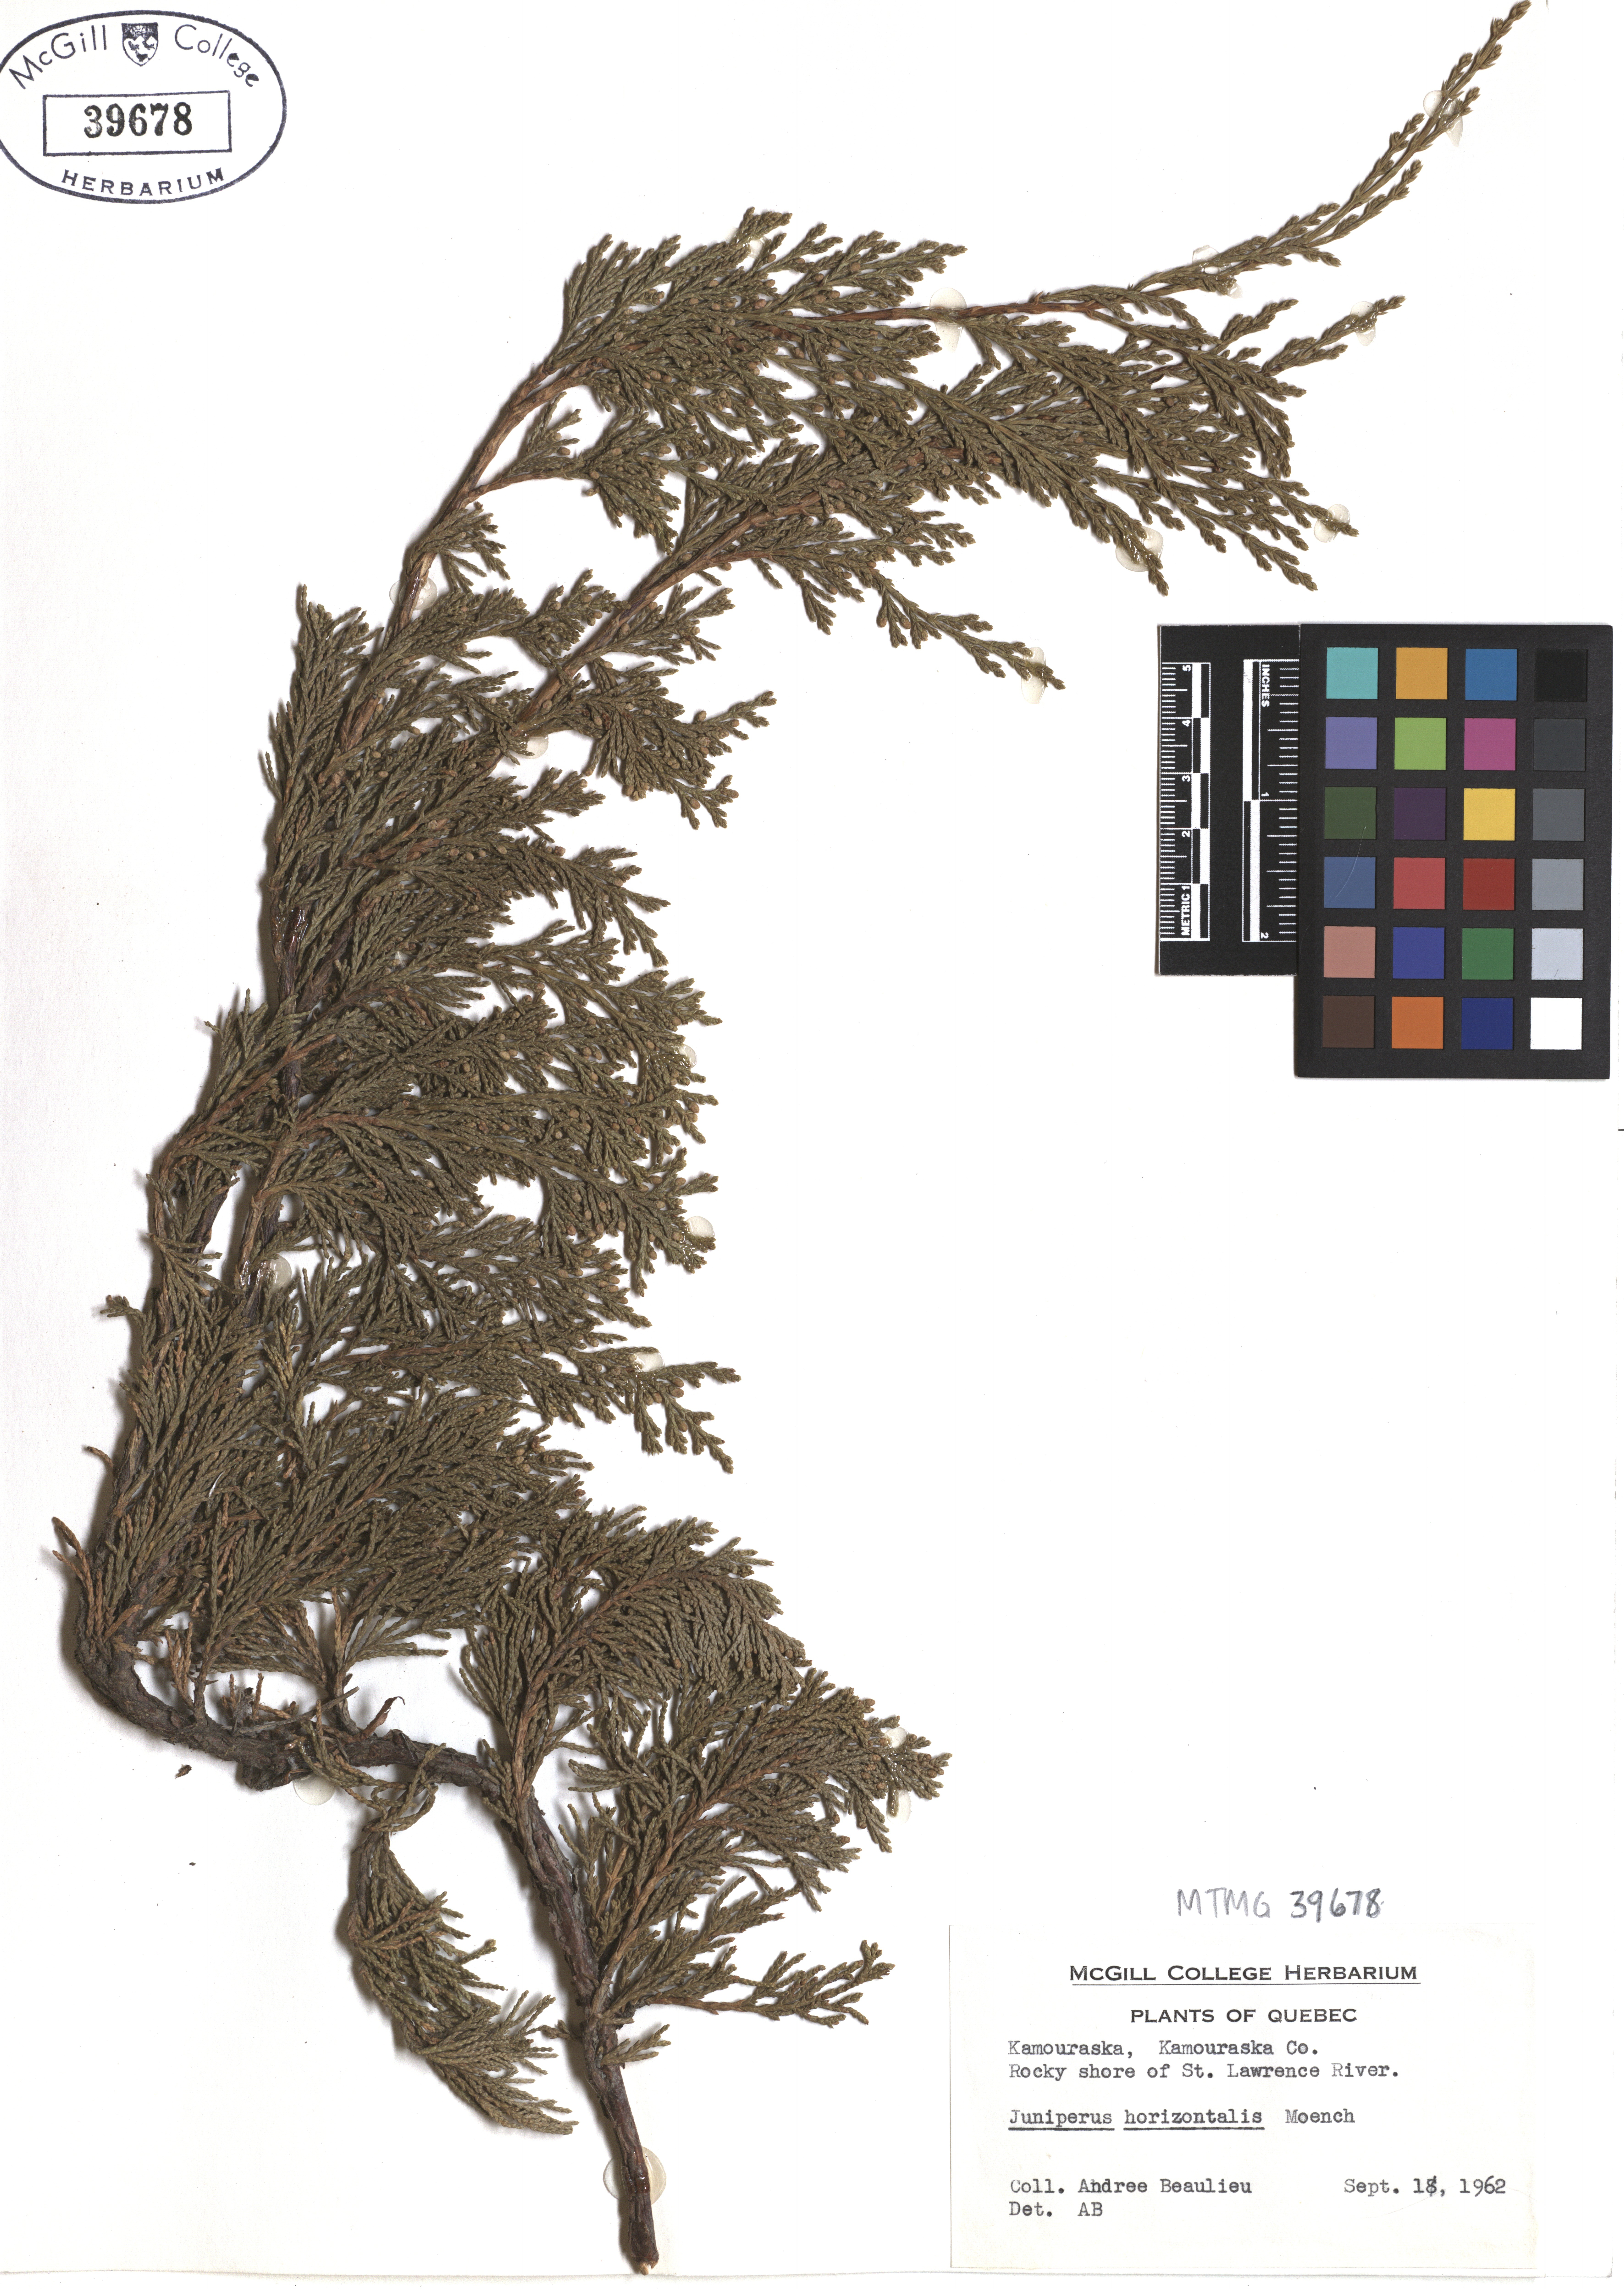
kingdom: Plantae
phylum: Tracheophyta
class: Pinopsida
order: Pinales
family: Cupressaceae
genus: Juniperus
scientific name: Juniperus horizontalis
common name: Creeping juniper
